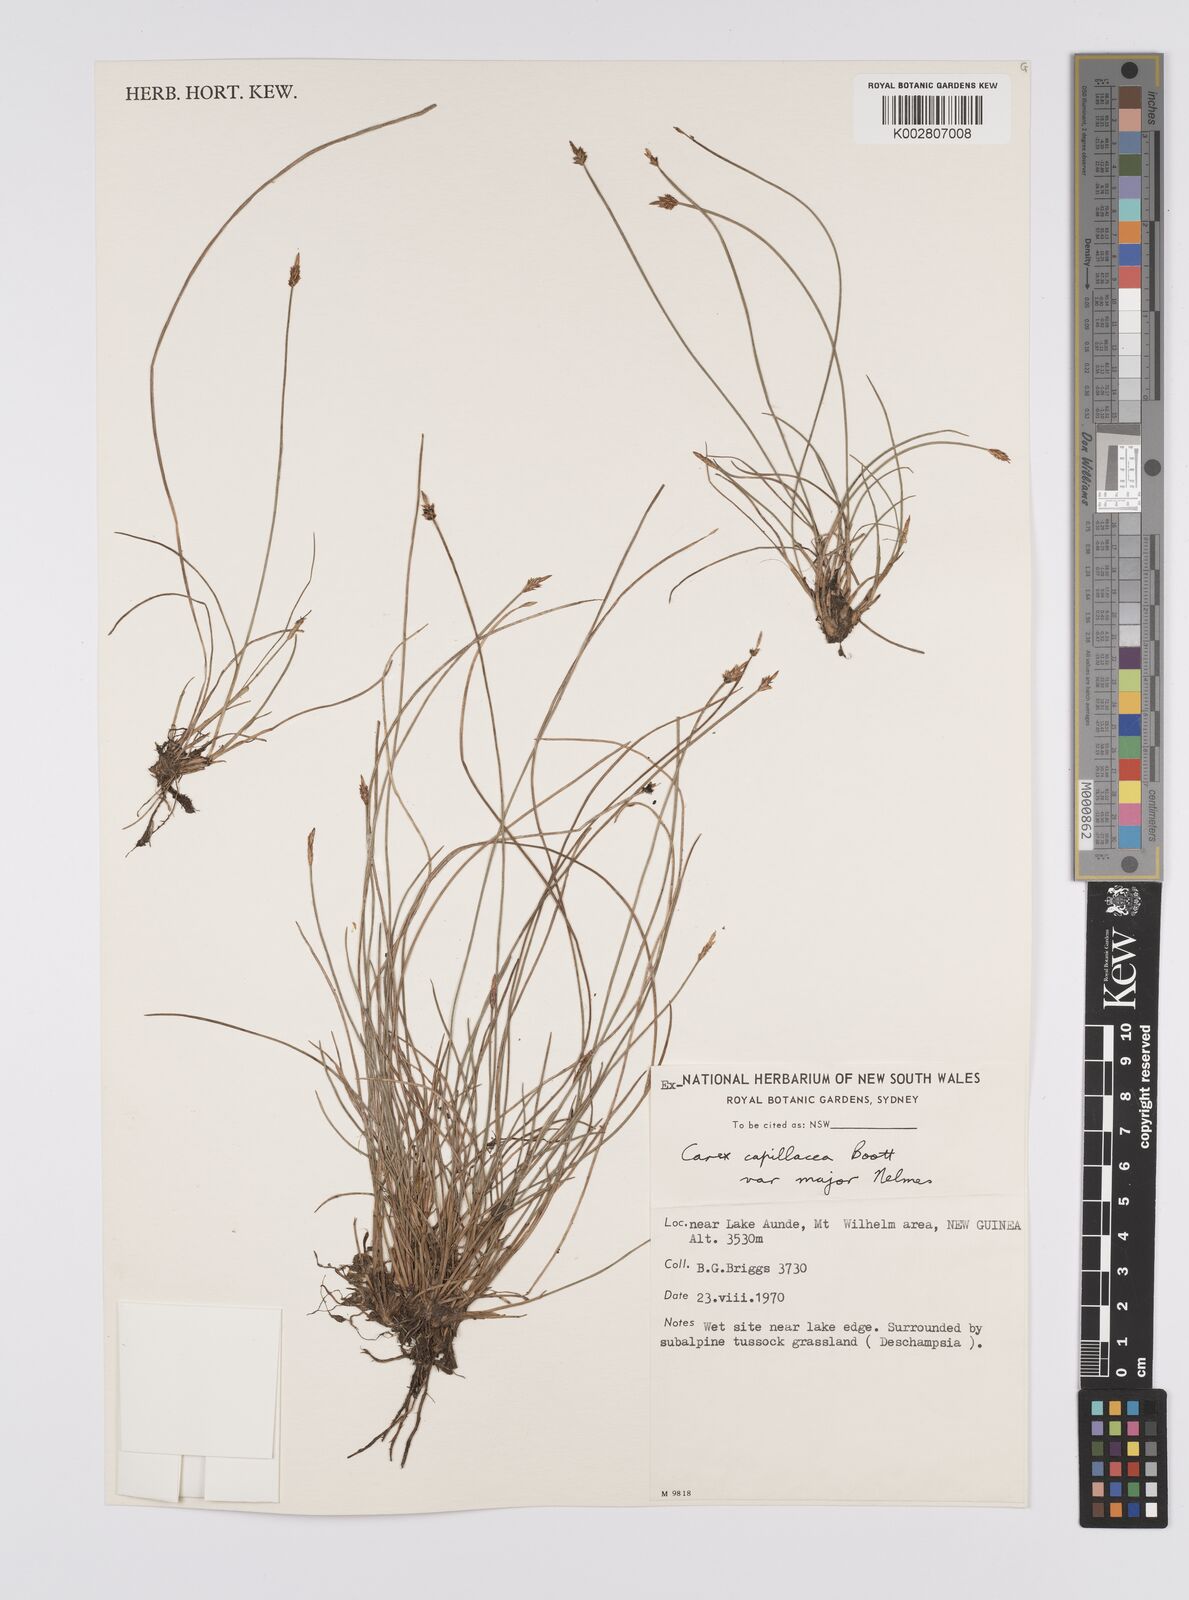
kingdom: Plantae
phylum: Tracheophyta
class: Liliopsida
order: Poales
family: Cyperaceae
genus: Carex
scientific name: Carex capillacea
